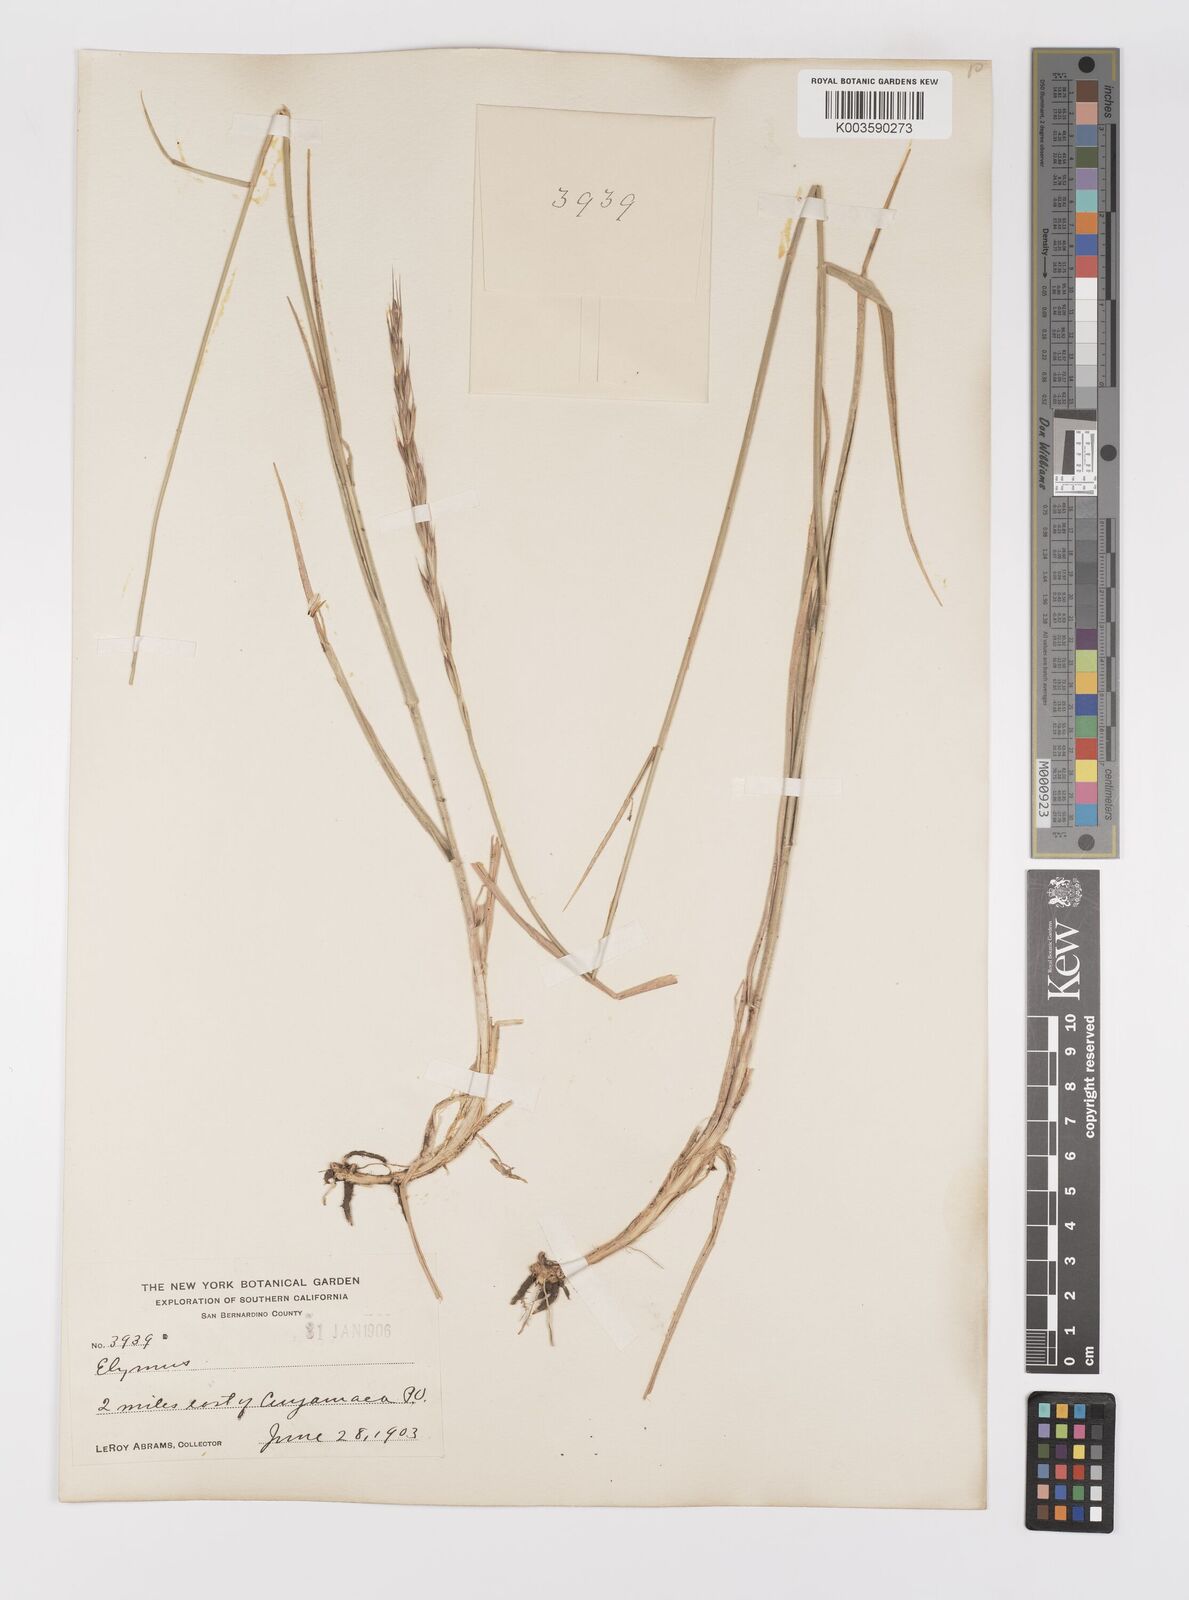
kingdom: Plantae
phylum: Tracheophyta
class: Liliopsida
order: Poales
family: Poaceae
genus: Elymus
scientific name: Elymus
